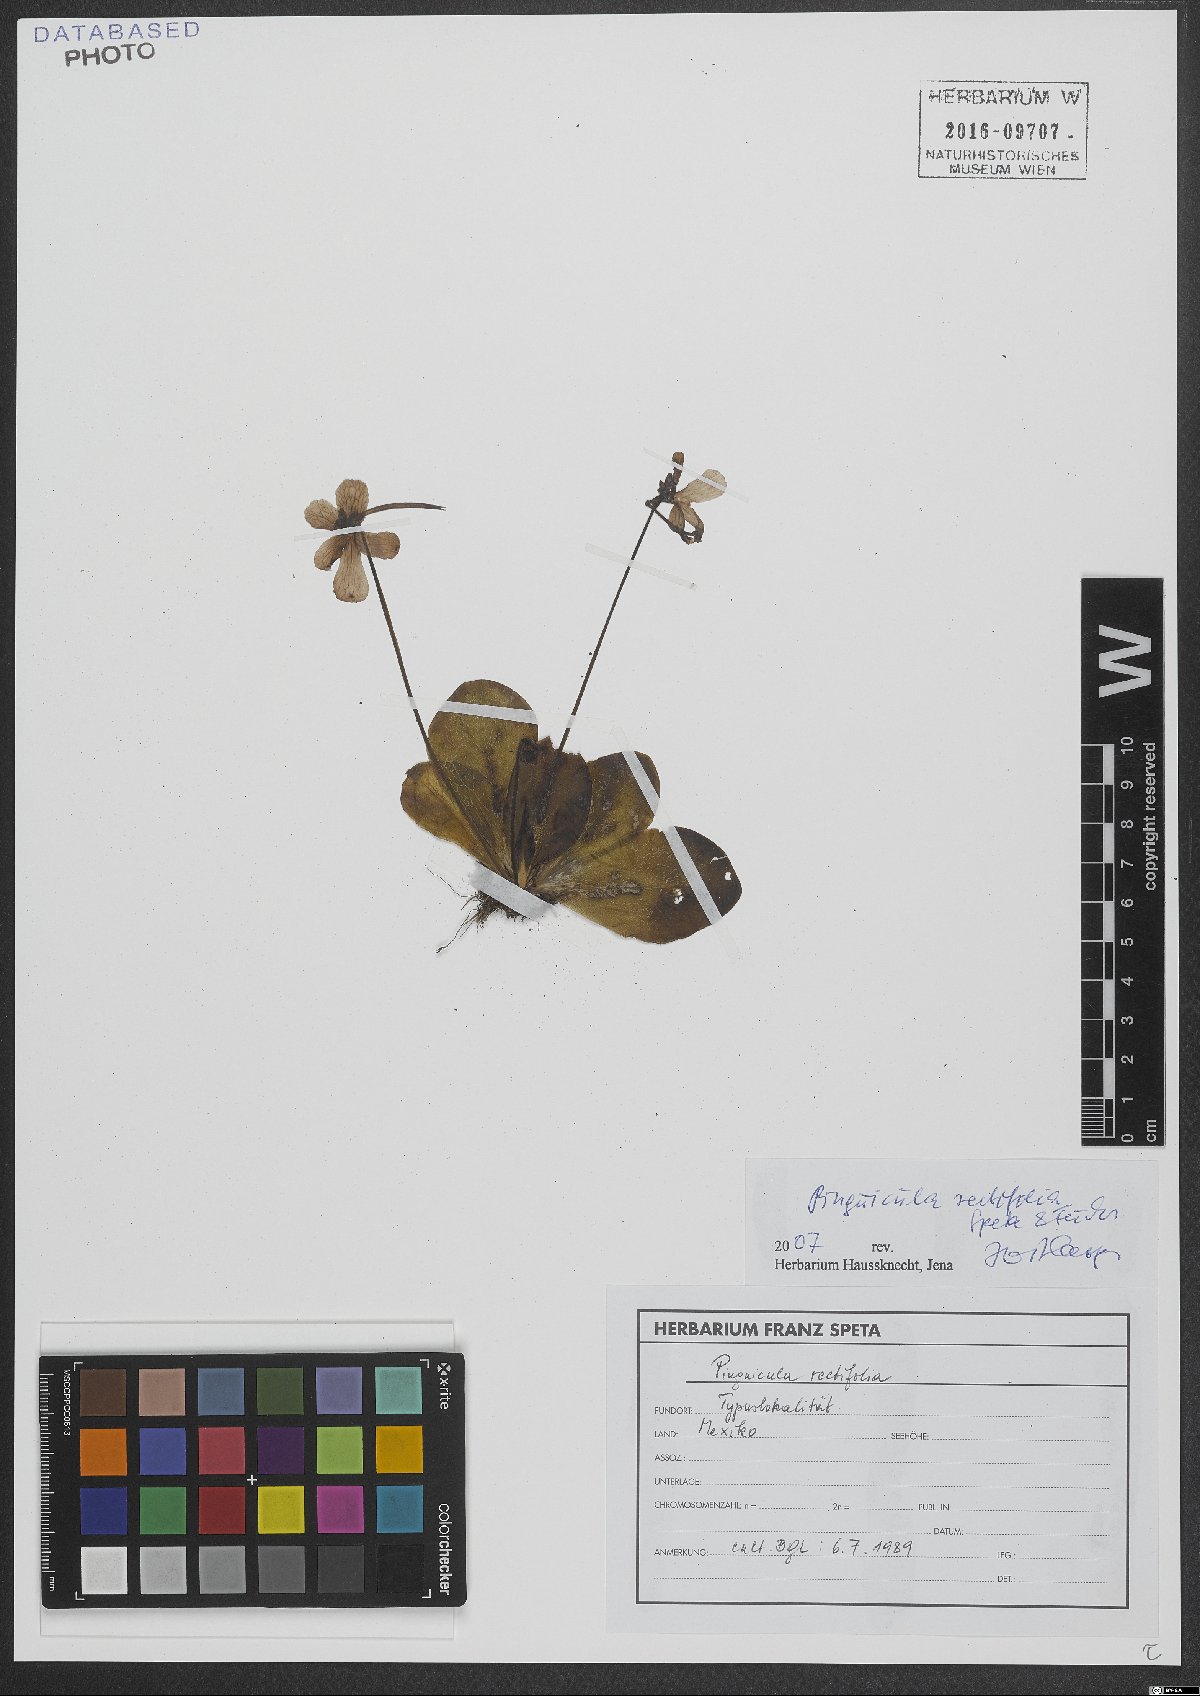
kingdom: Plantae
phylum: Tracheophyta
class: Magnoliopsida
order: Lamiales
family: Lentibulariaceae
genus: Pinguicula
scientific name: Pinguicula moranensis
